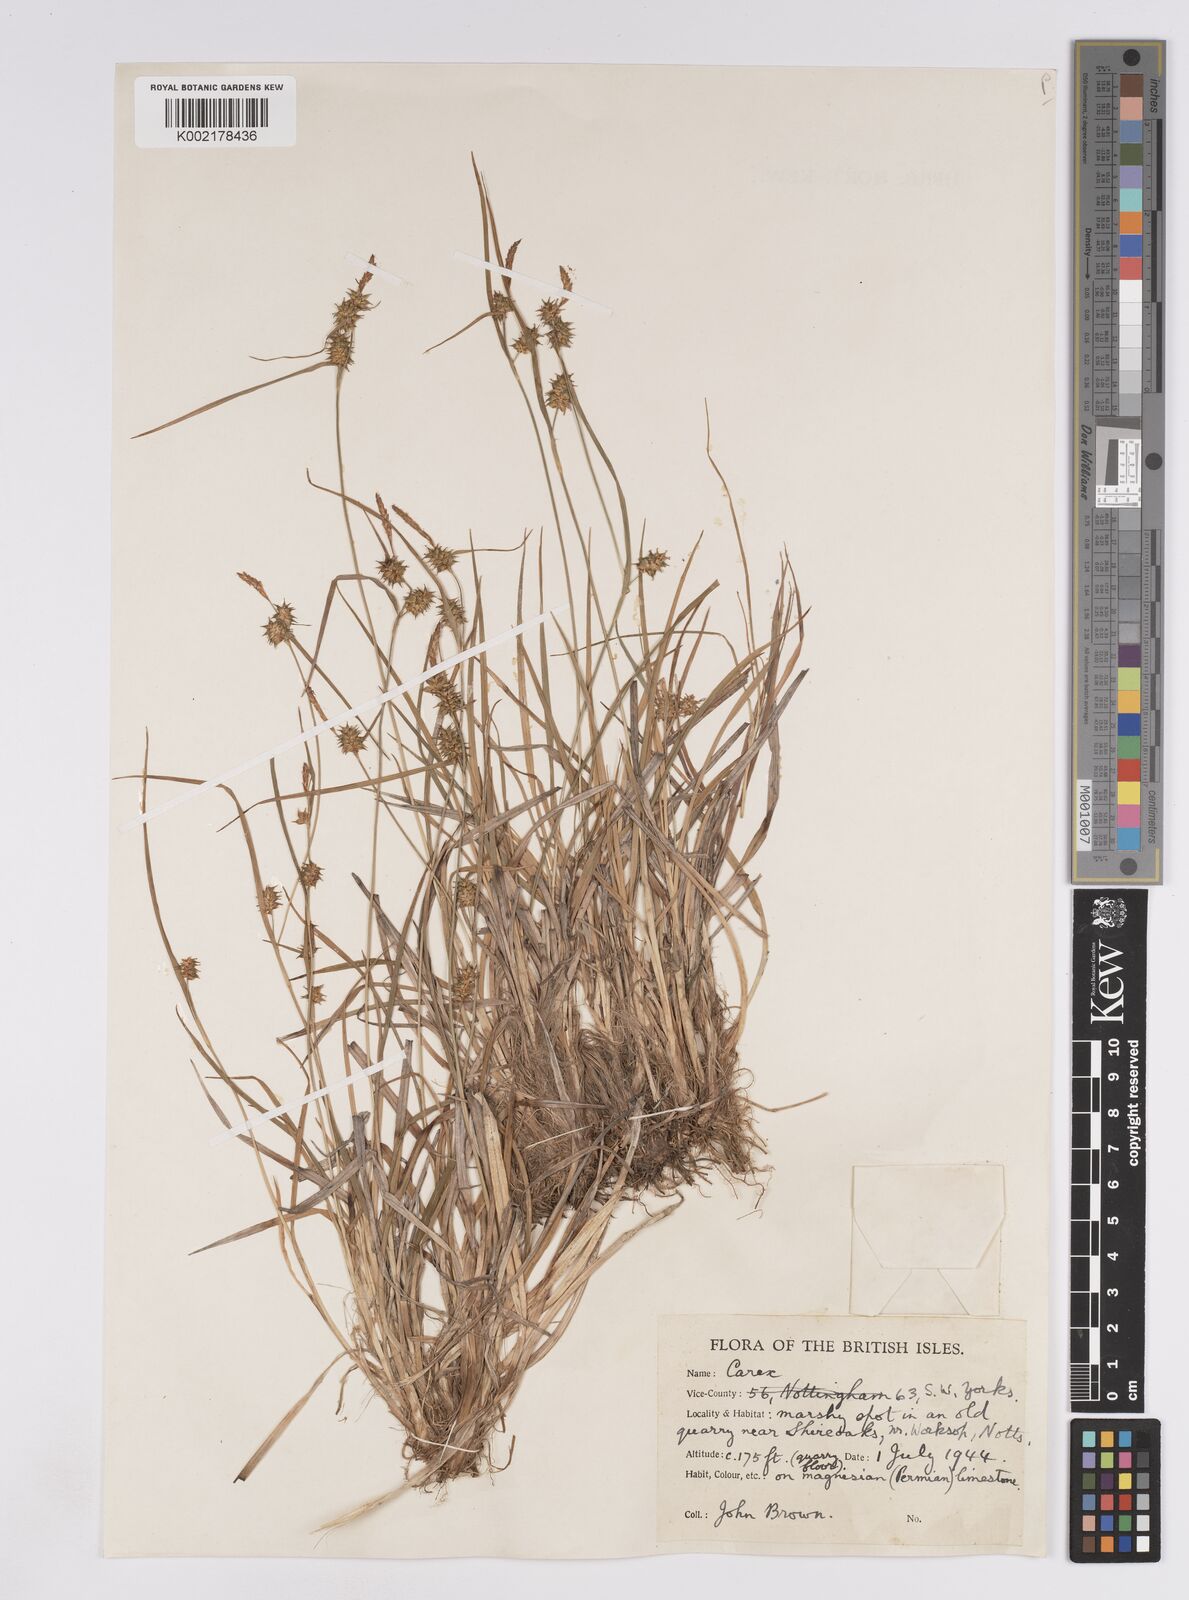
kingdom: Plantae
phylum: Tracheophyta
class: Liliopsida
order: Poales
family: Cyperaceae
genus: Carex
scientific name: Carex lepidocarpa
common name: Long-stalked yellow-sedge
